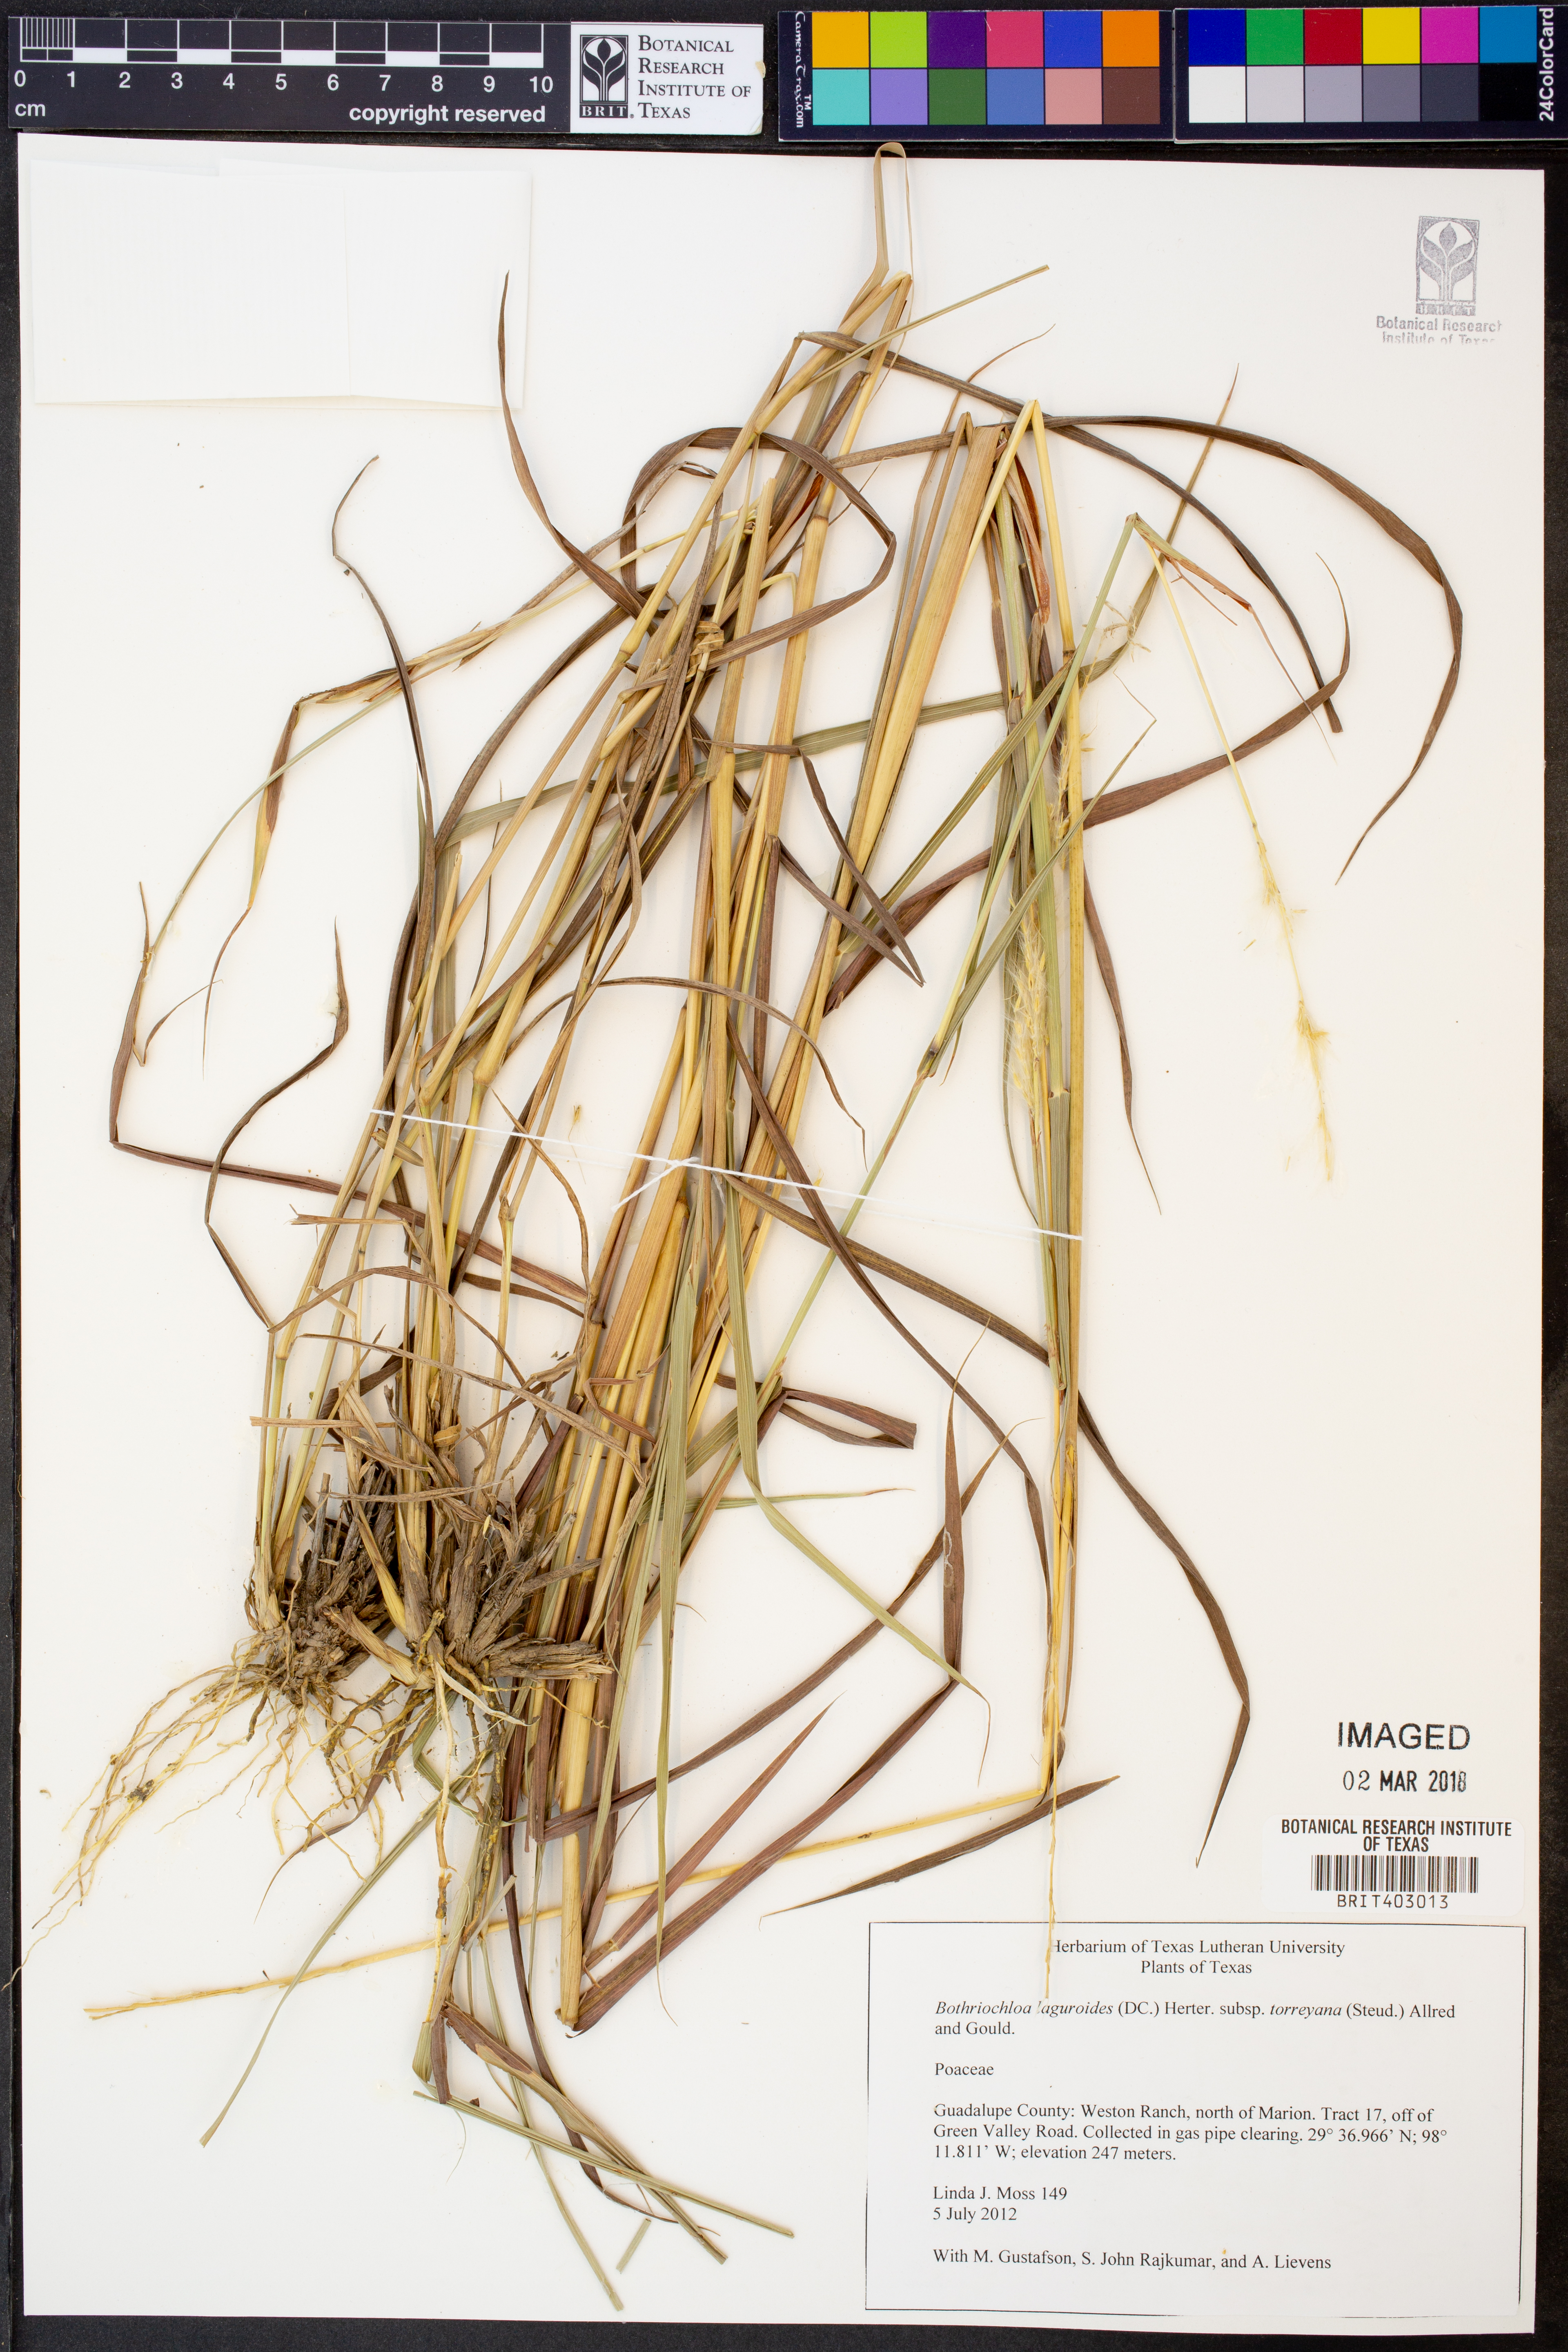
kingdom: Plantae
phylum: Tracheophyta
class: Liliopsida
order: Poales
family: Poaceae
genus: Bothriochloa
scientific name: Bothriochloa torreyana
